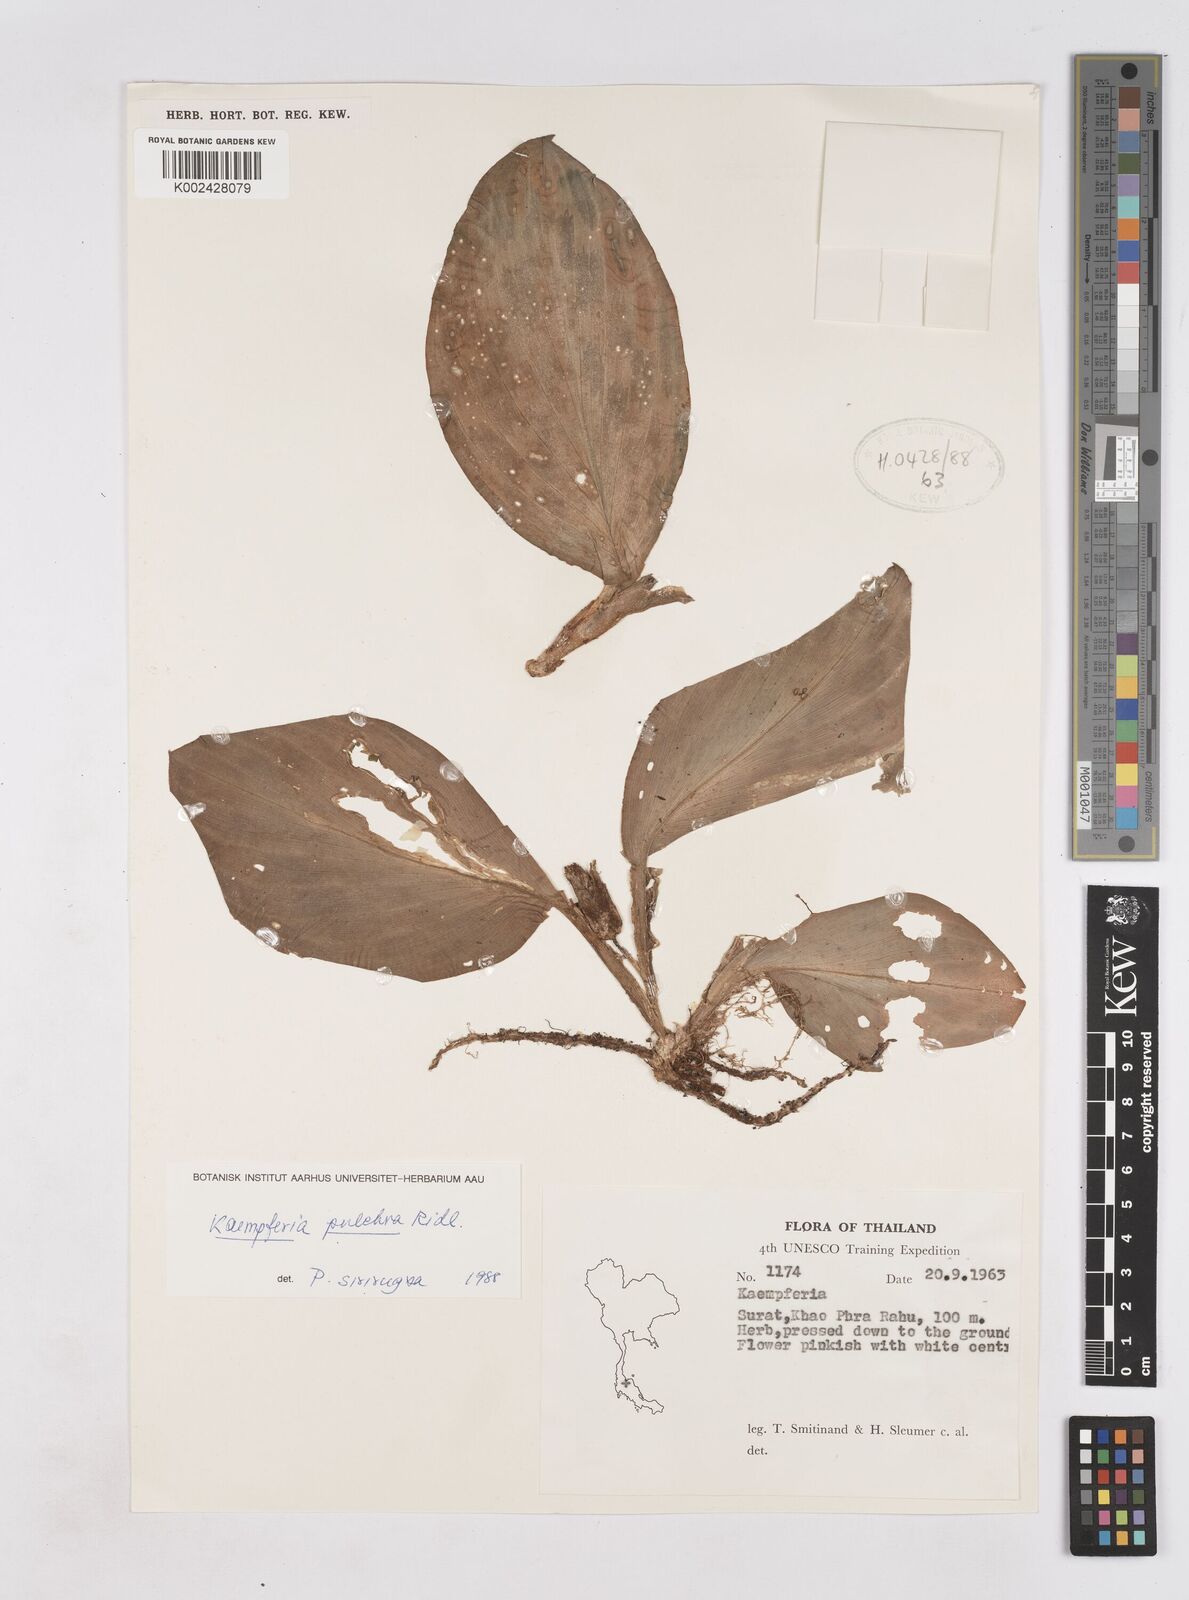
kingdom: Plantae
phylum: Tracheophyta
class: Liliopsida
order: Zingiberales
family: Zingiberaceae
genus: Kaempferia
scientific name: Kaempferia elegans
